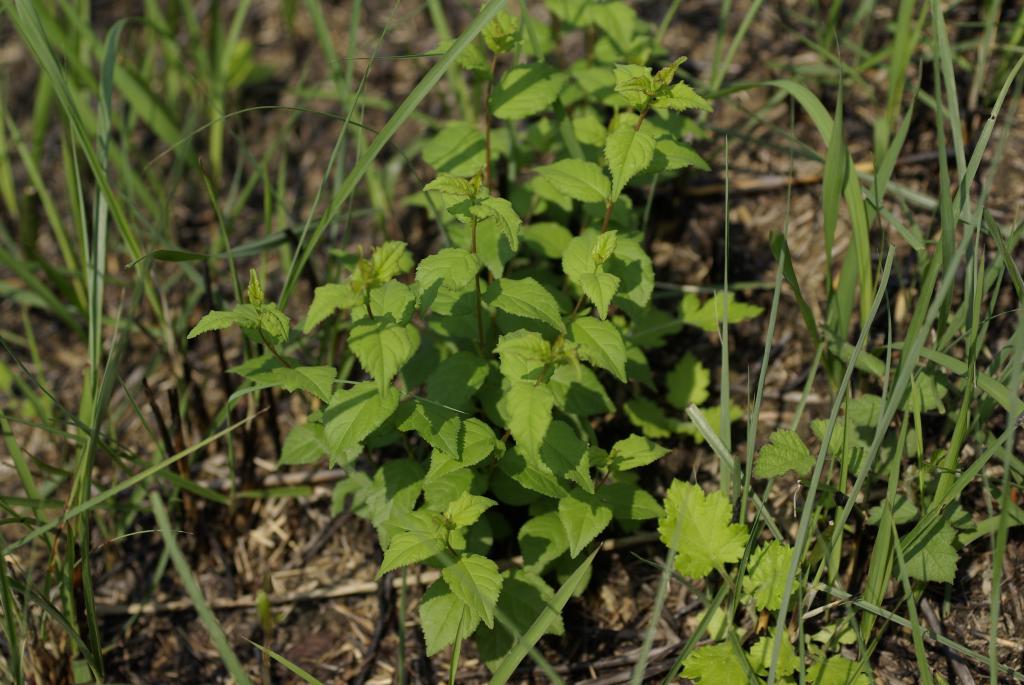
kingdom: Plantae
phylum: Tracheophyta
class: Magnoliopsida
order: Rosales
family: Rosaceae
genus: Prunus
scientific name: Prunus japonica
